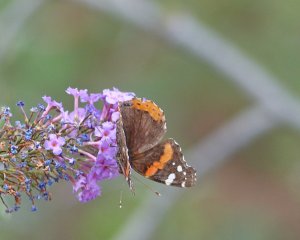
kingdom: Animalia
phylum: Arthropoda
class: Insecta
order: Lepidoptera
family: Nymphalidae
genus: Vanessa
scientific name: Vanessa atalanta
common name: Red Admiral
